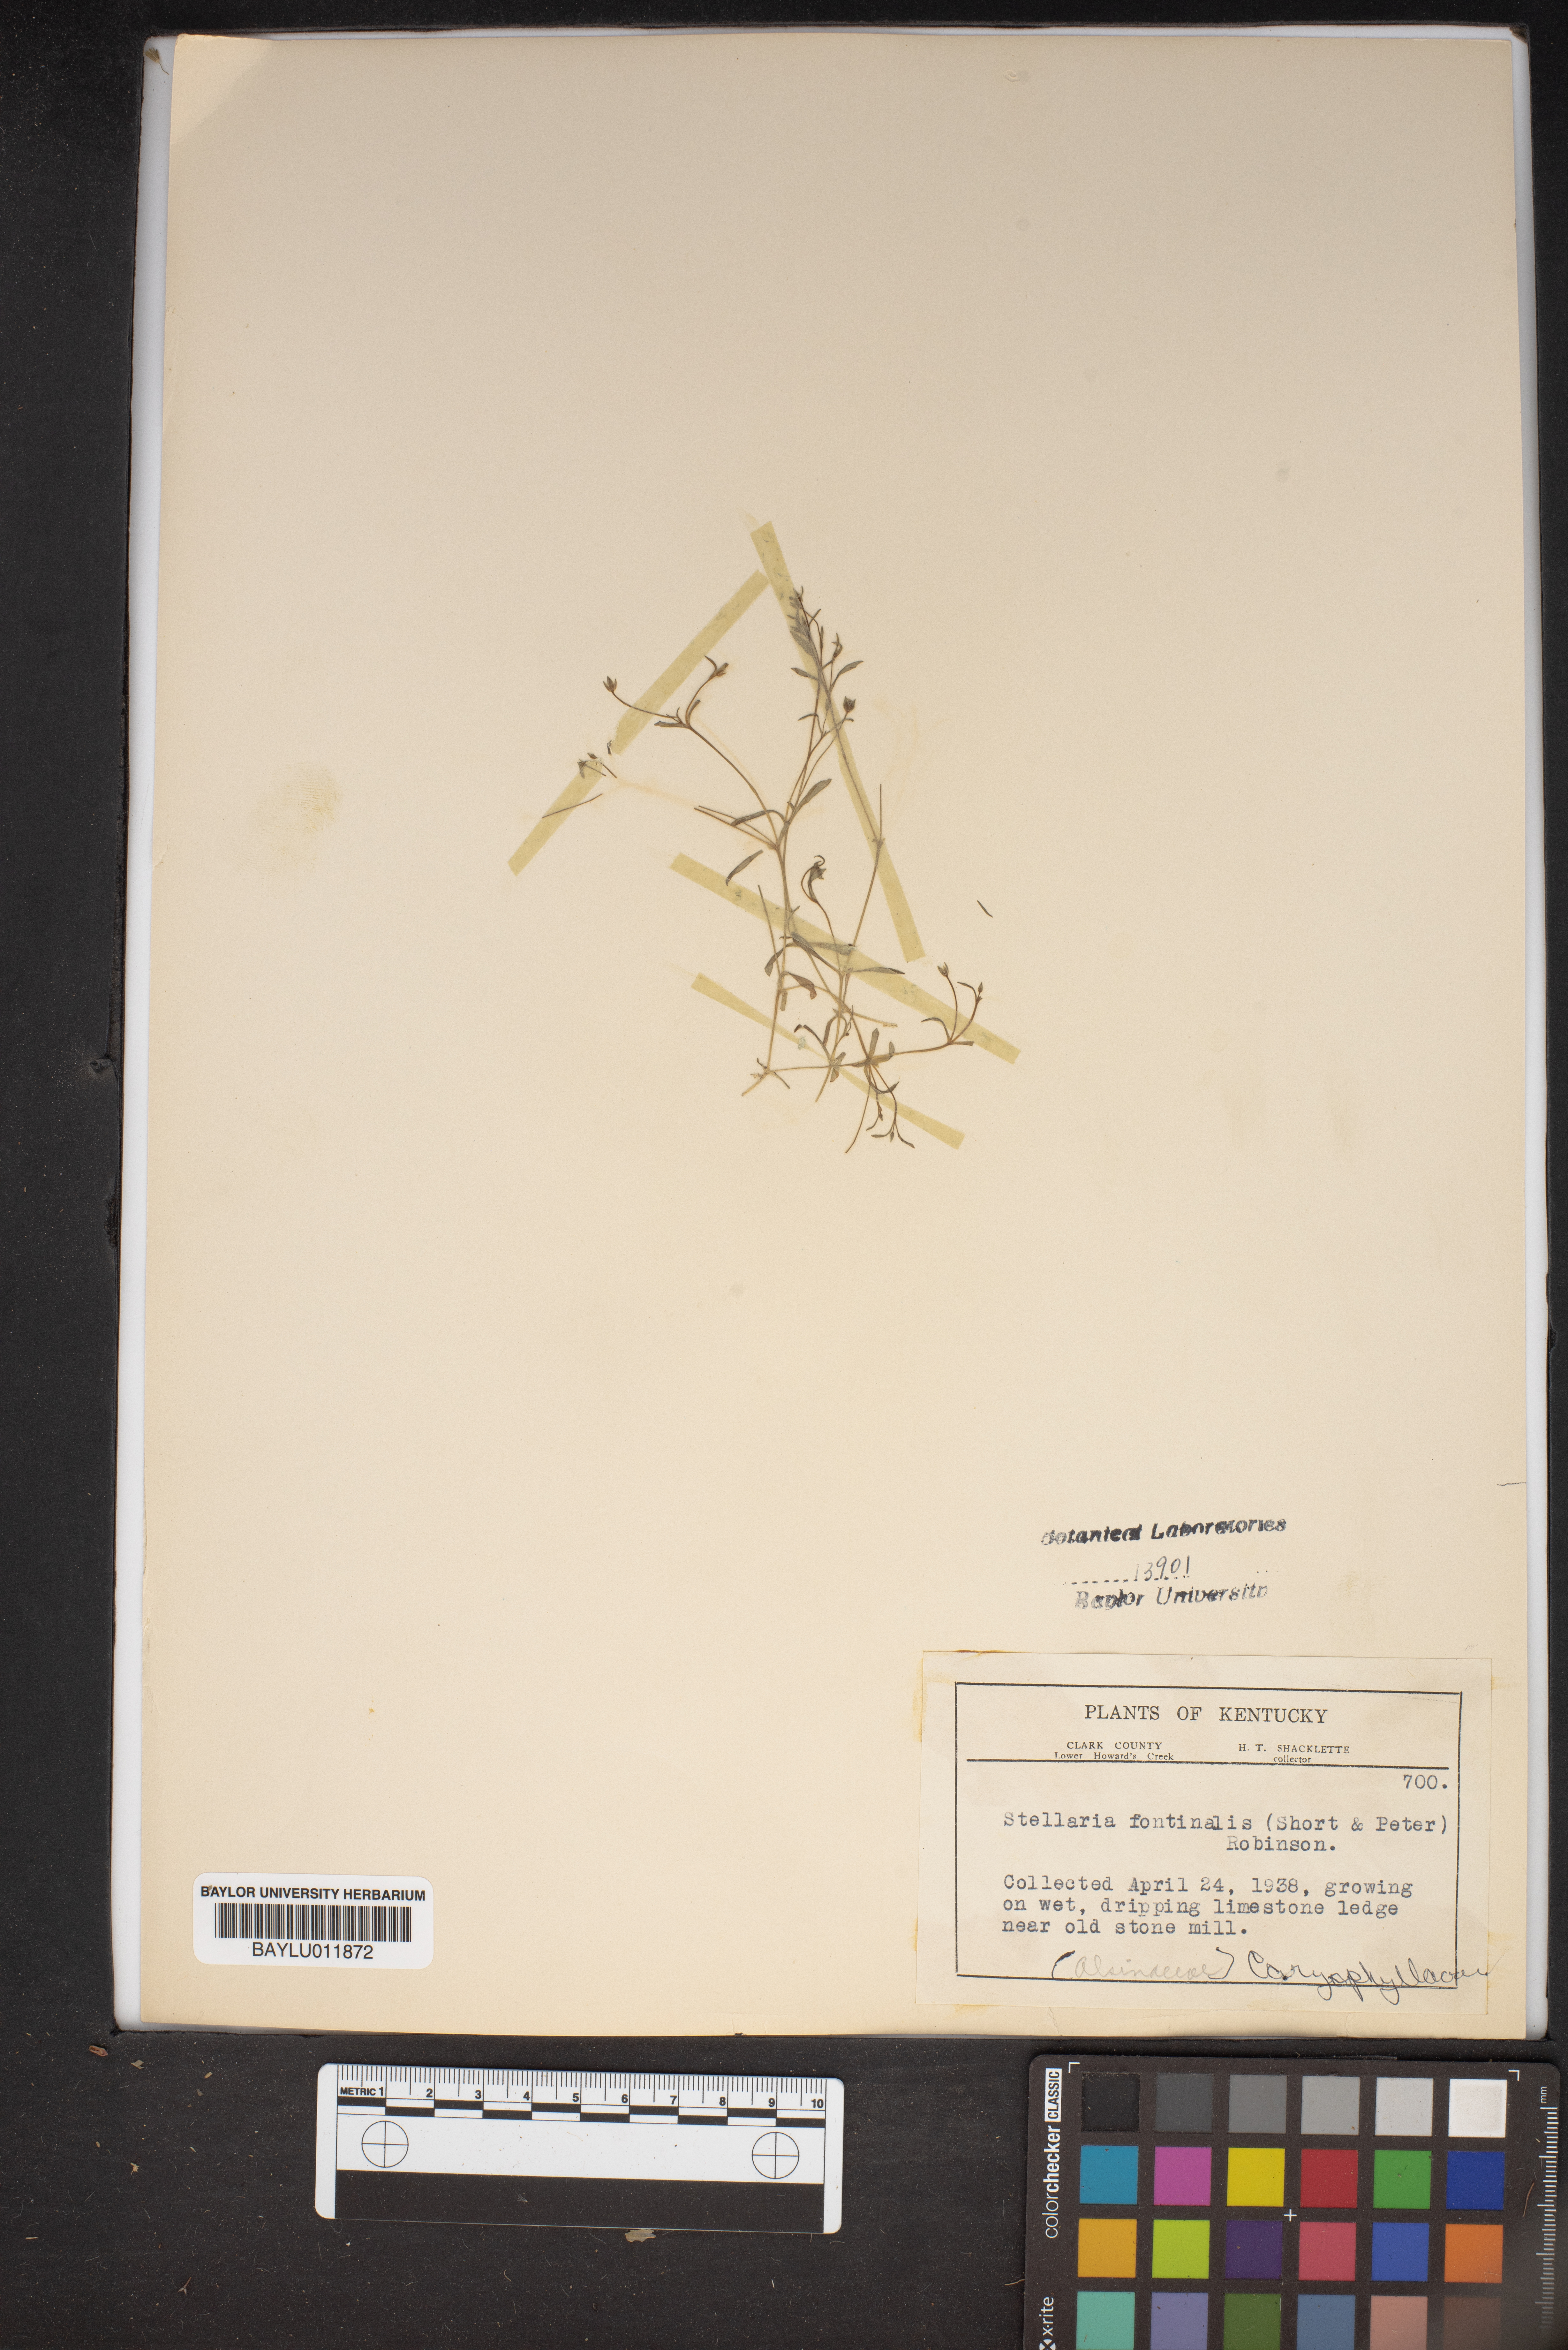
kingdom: Plantae
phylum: Tracheophyta
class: Magnoliopsida
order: Caryophyllales
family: Caryophyllaceae
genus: Sabulina
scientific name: Sabulina fontinalis
